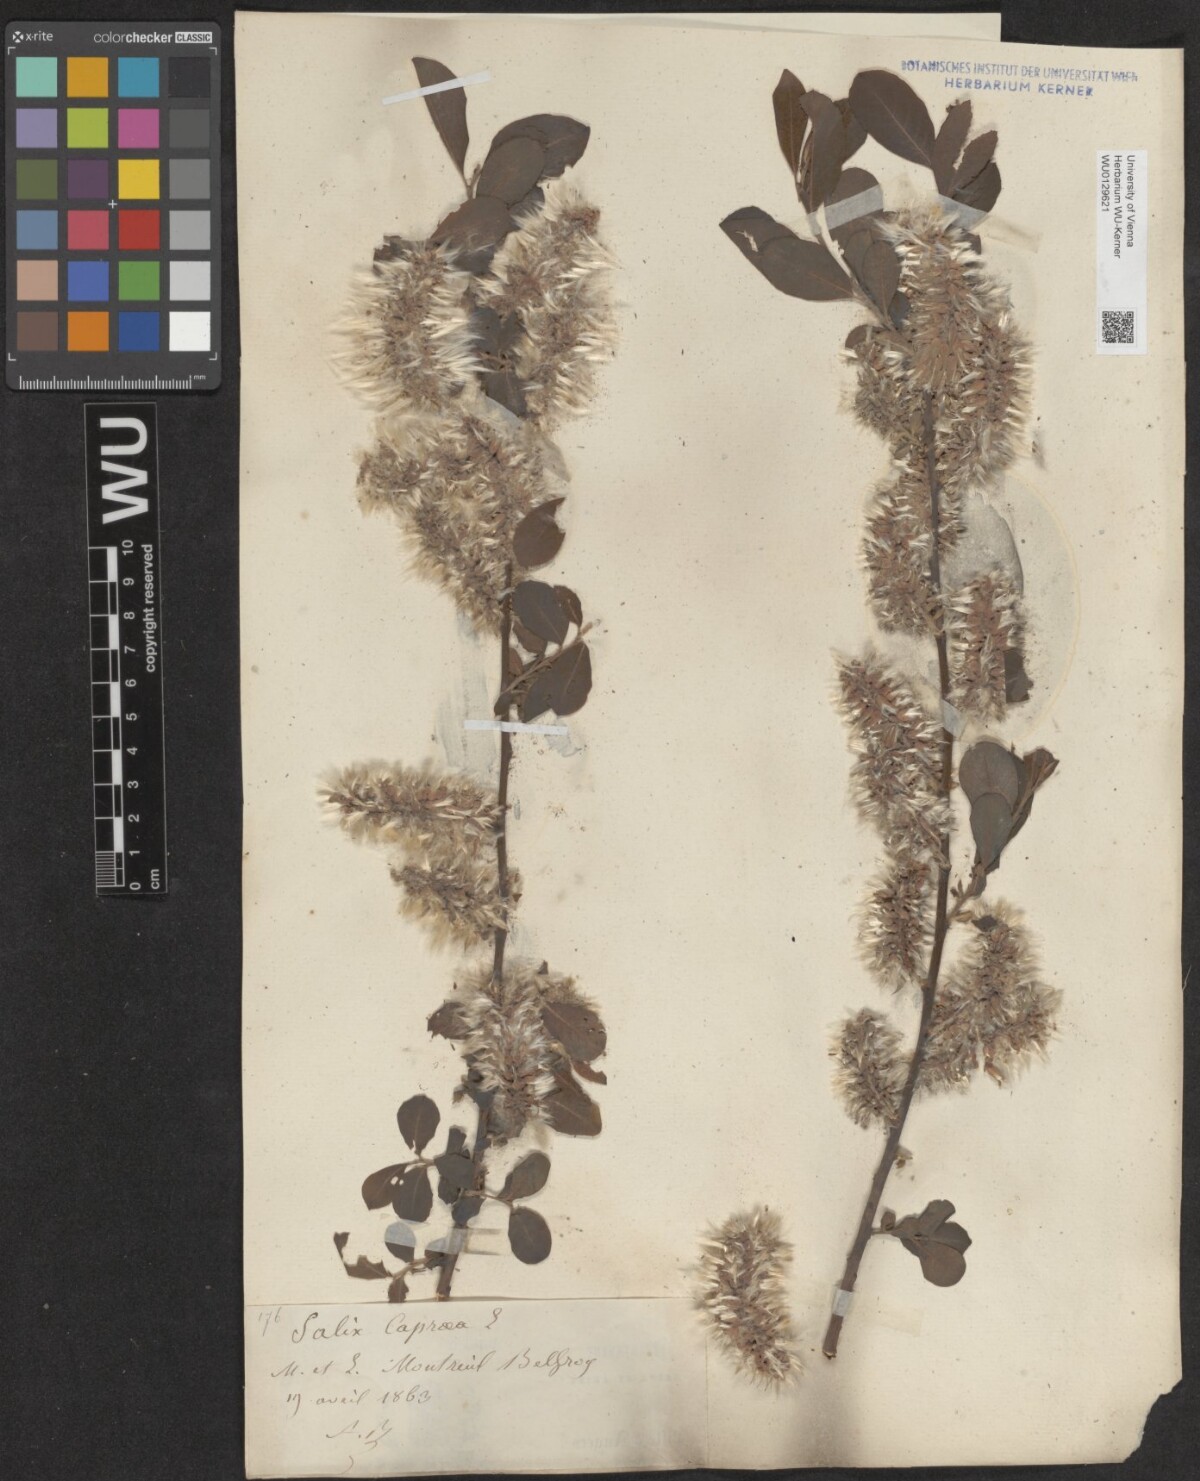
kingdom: Plantae
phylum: Tracheophyta
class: Magnoliopsida
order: Malpighiales
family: Salicaceae
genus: Salix
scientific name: Salix caprea
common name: Goat willow
